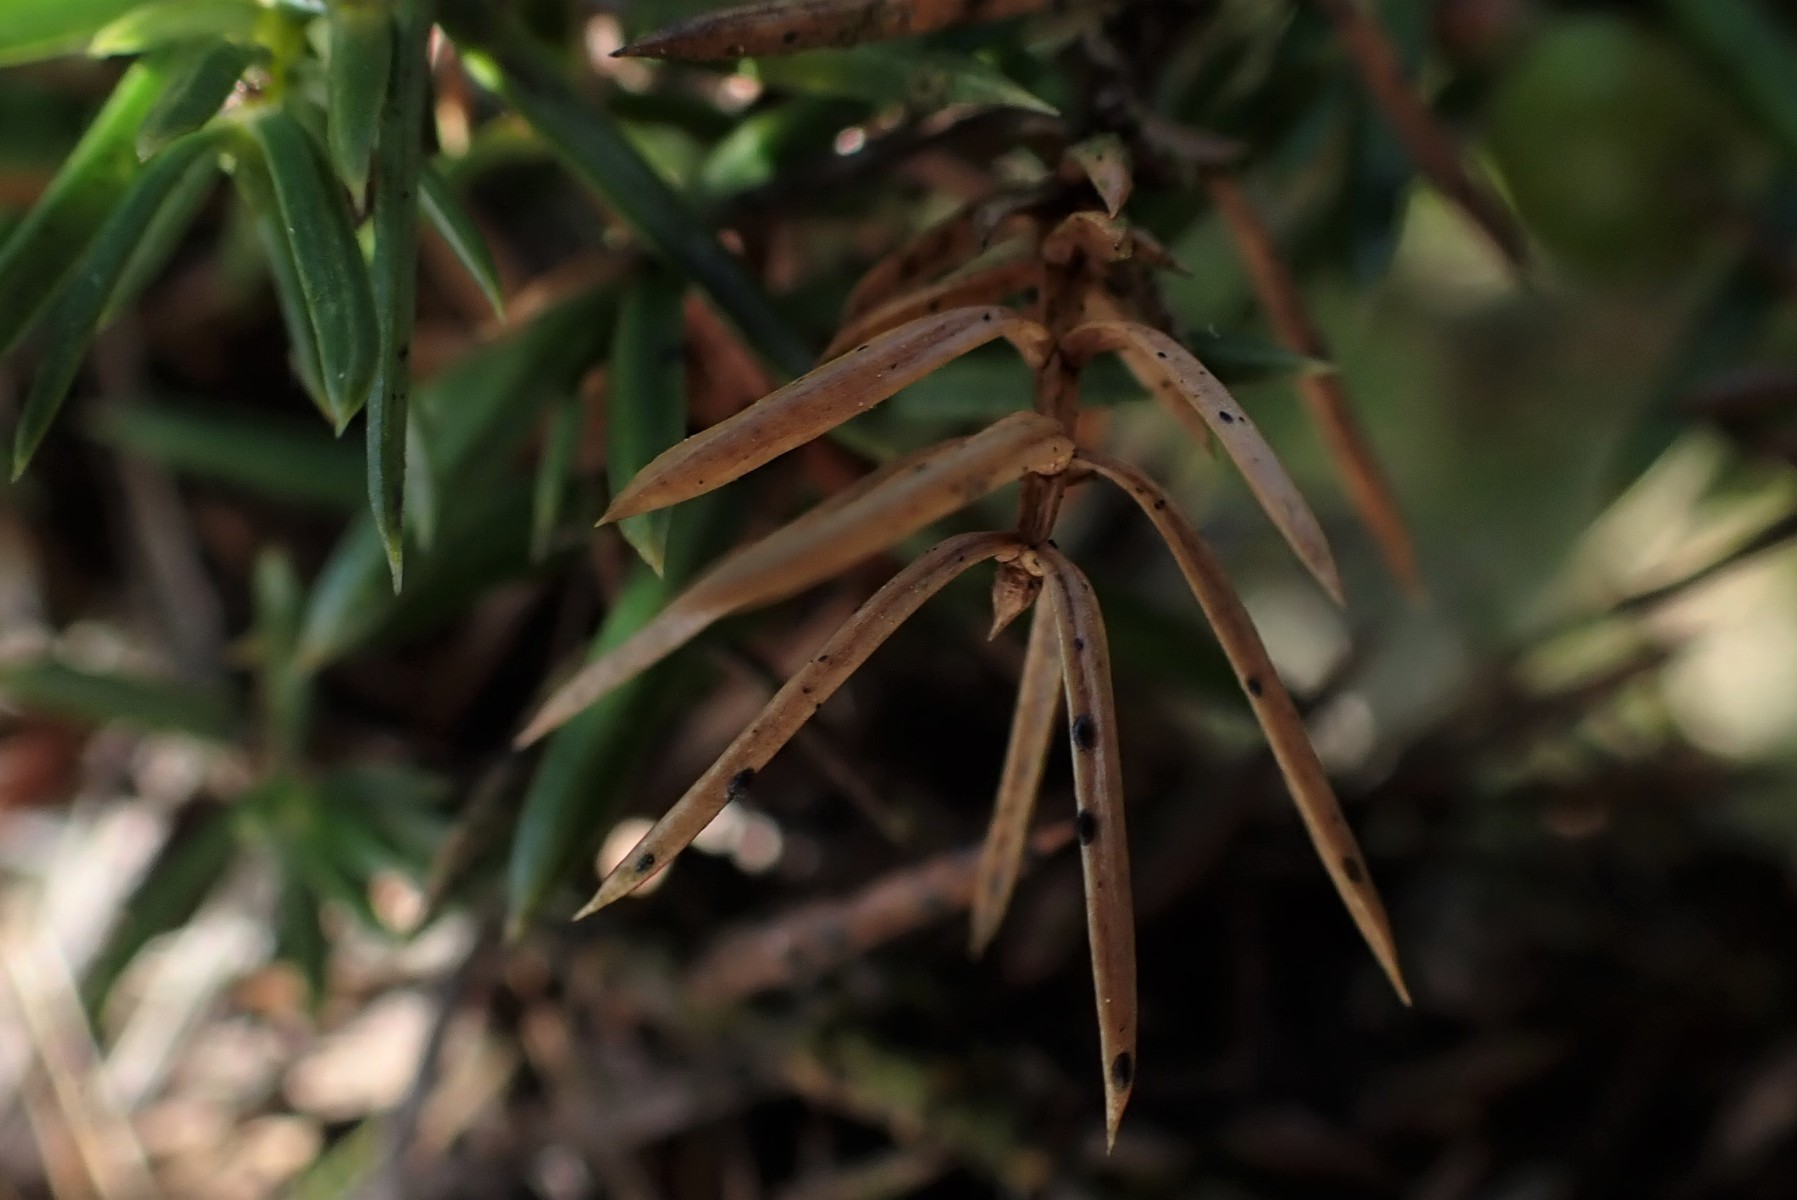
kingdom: Fungi
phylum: Ascomycota
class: Leotiomycetes
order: Rhytismatales
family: Rhytismataceae
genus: Lophodermium
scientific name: Lophodermium juniperinum
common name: ene-fureplet
